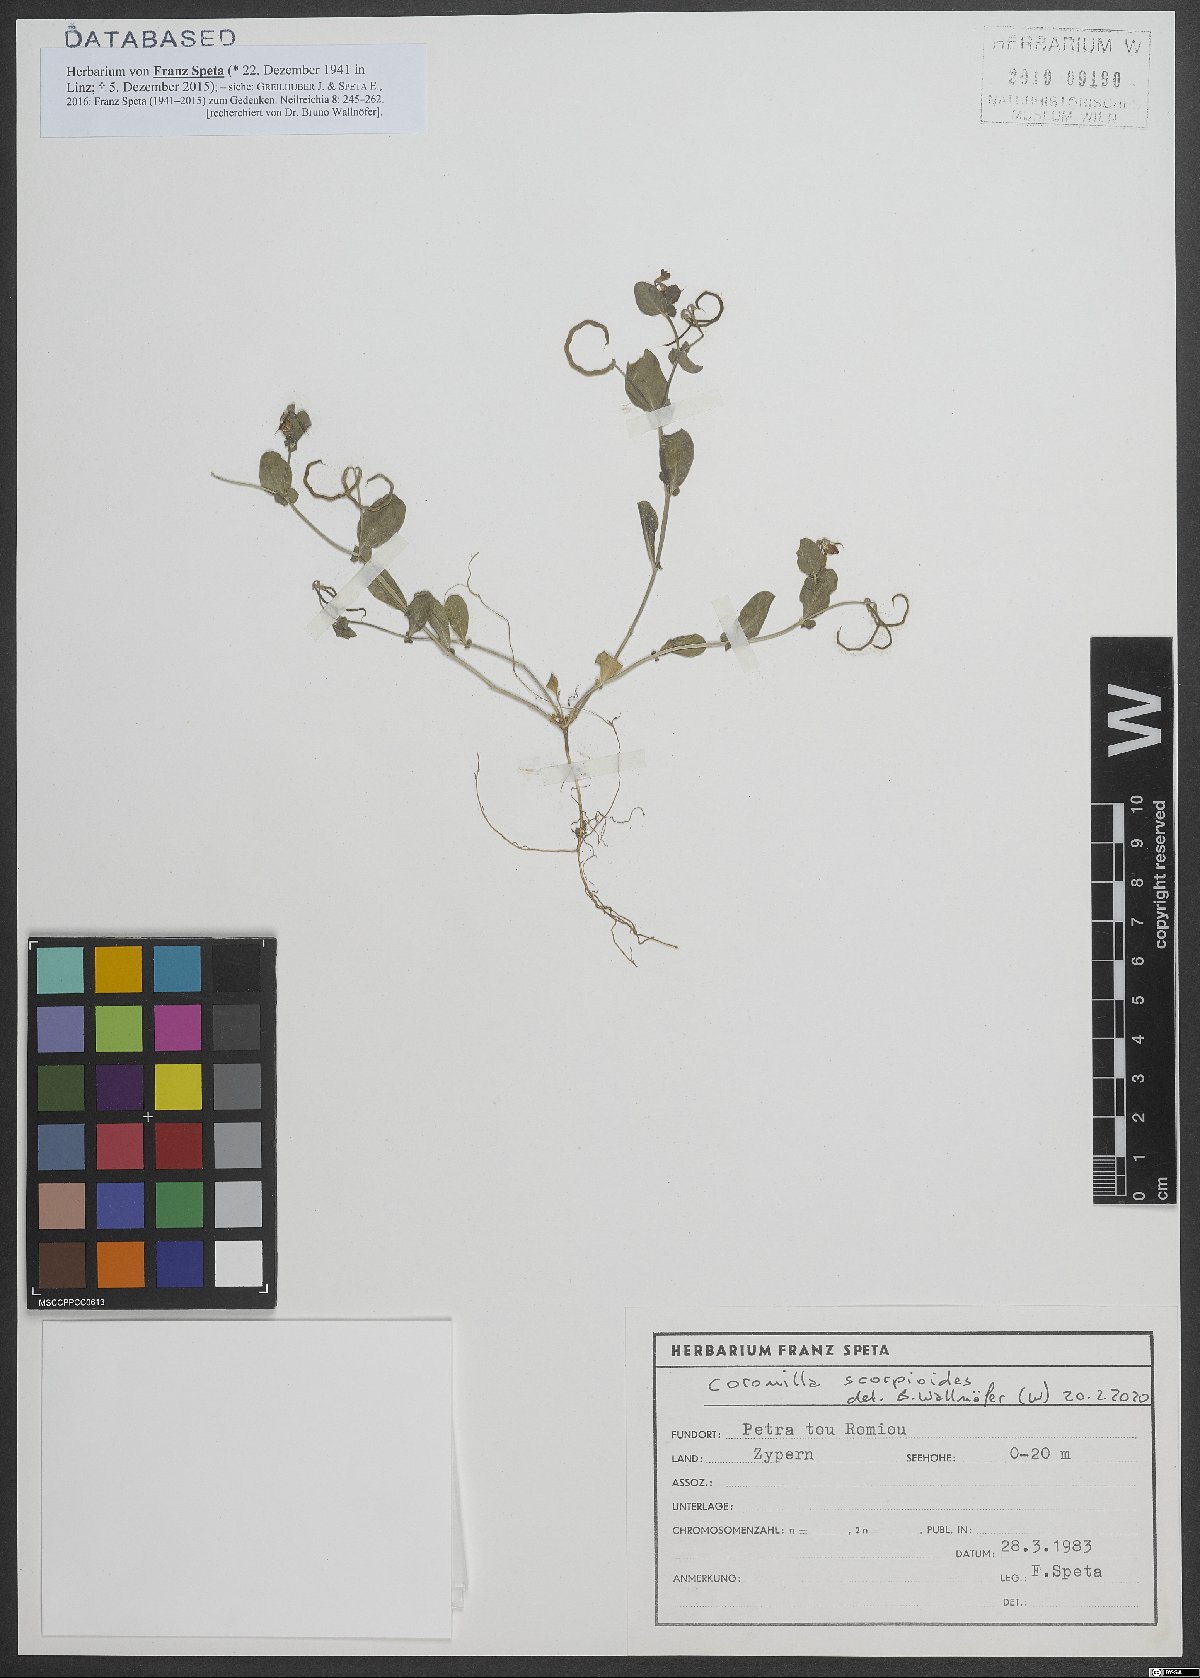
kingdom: Plantae
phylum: Tracheophyta
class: Magnoliopsida
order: Fabales
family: Fabaceae
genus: Coronilla
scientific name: Coronilla scorpioides
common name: Annual scorpion-vetch
